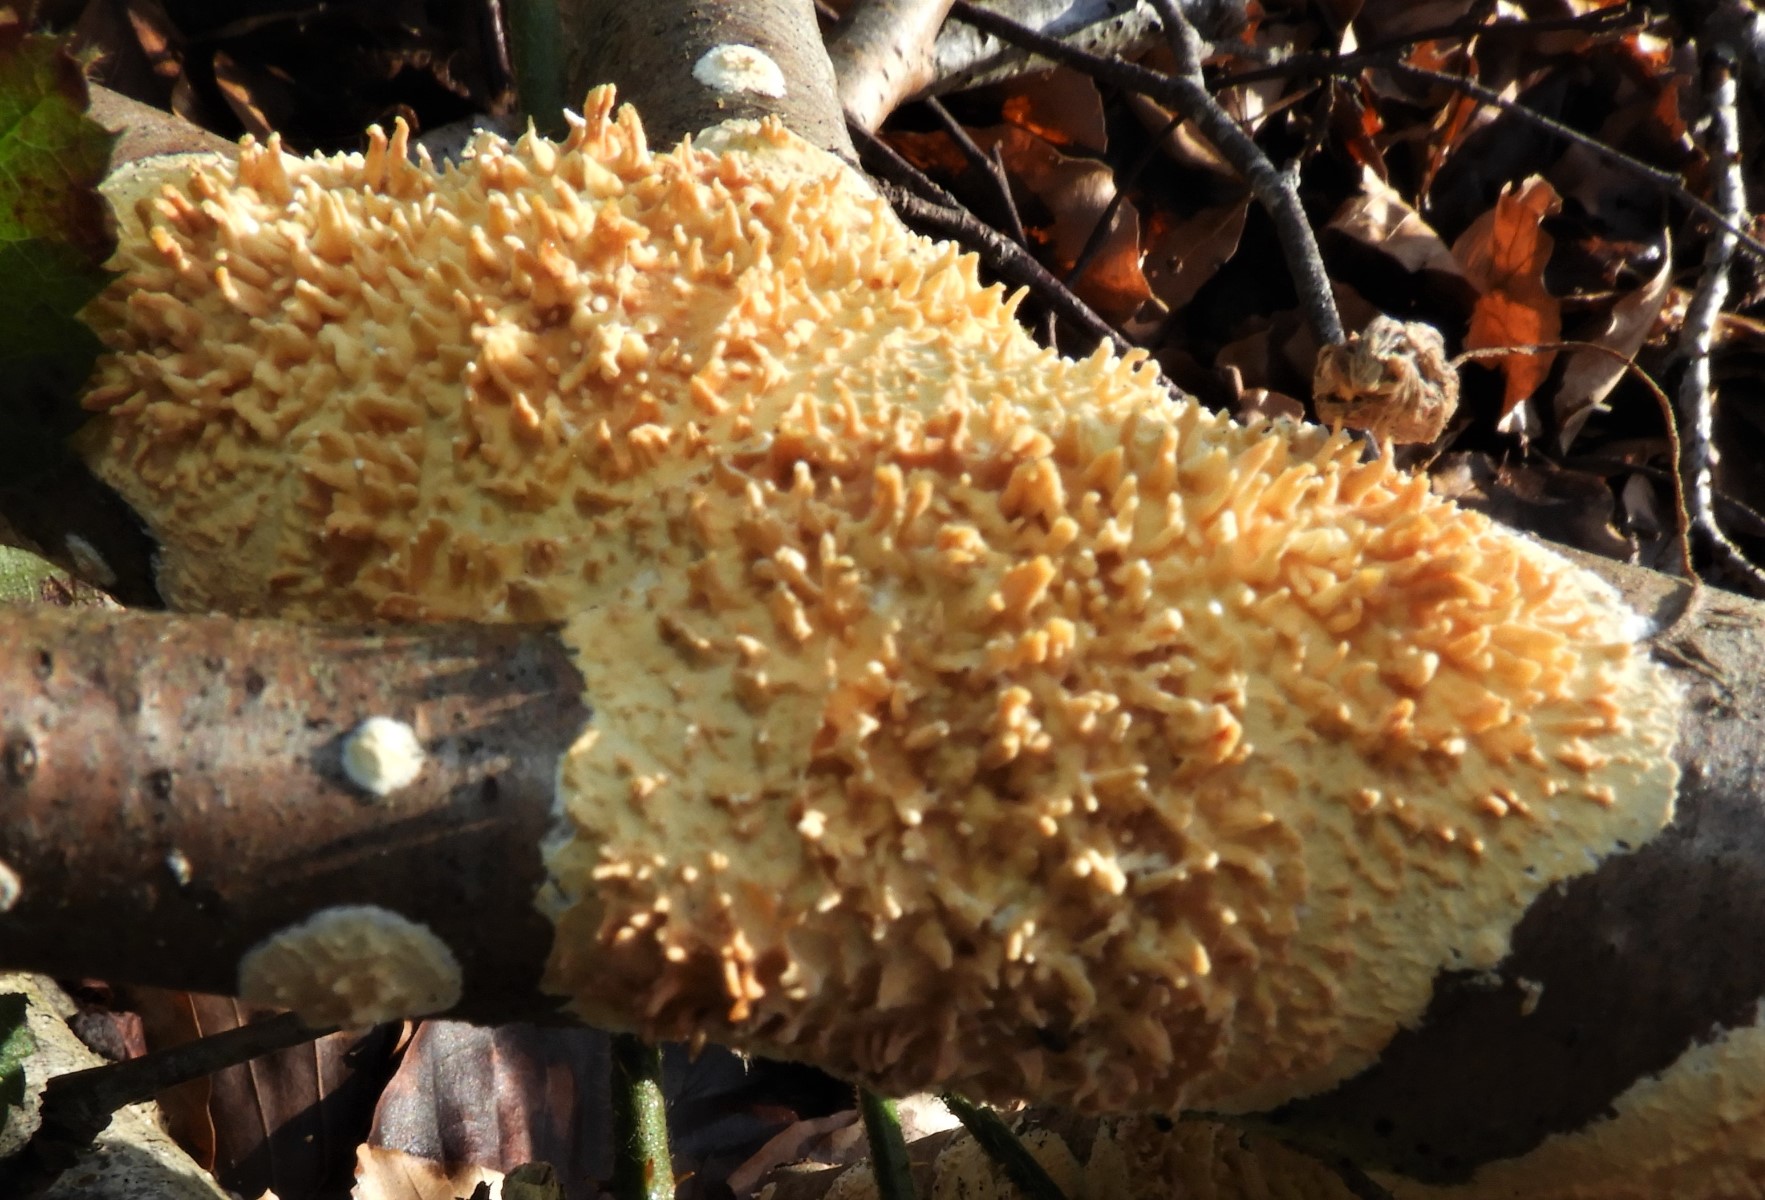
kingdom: Fungi
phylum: Basidiomycota
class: Agaricomycetes
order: Hymenochaetales
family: Schizoporaceae
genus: Xylodon
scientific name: Xylodon radula
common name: grovtandet kalkskind
